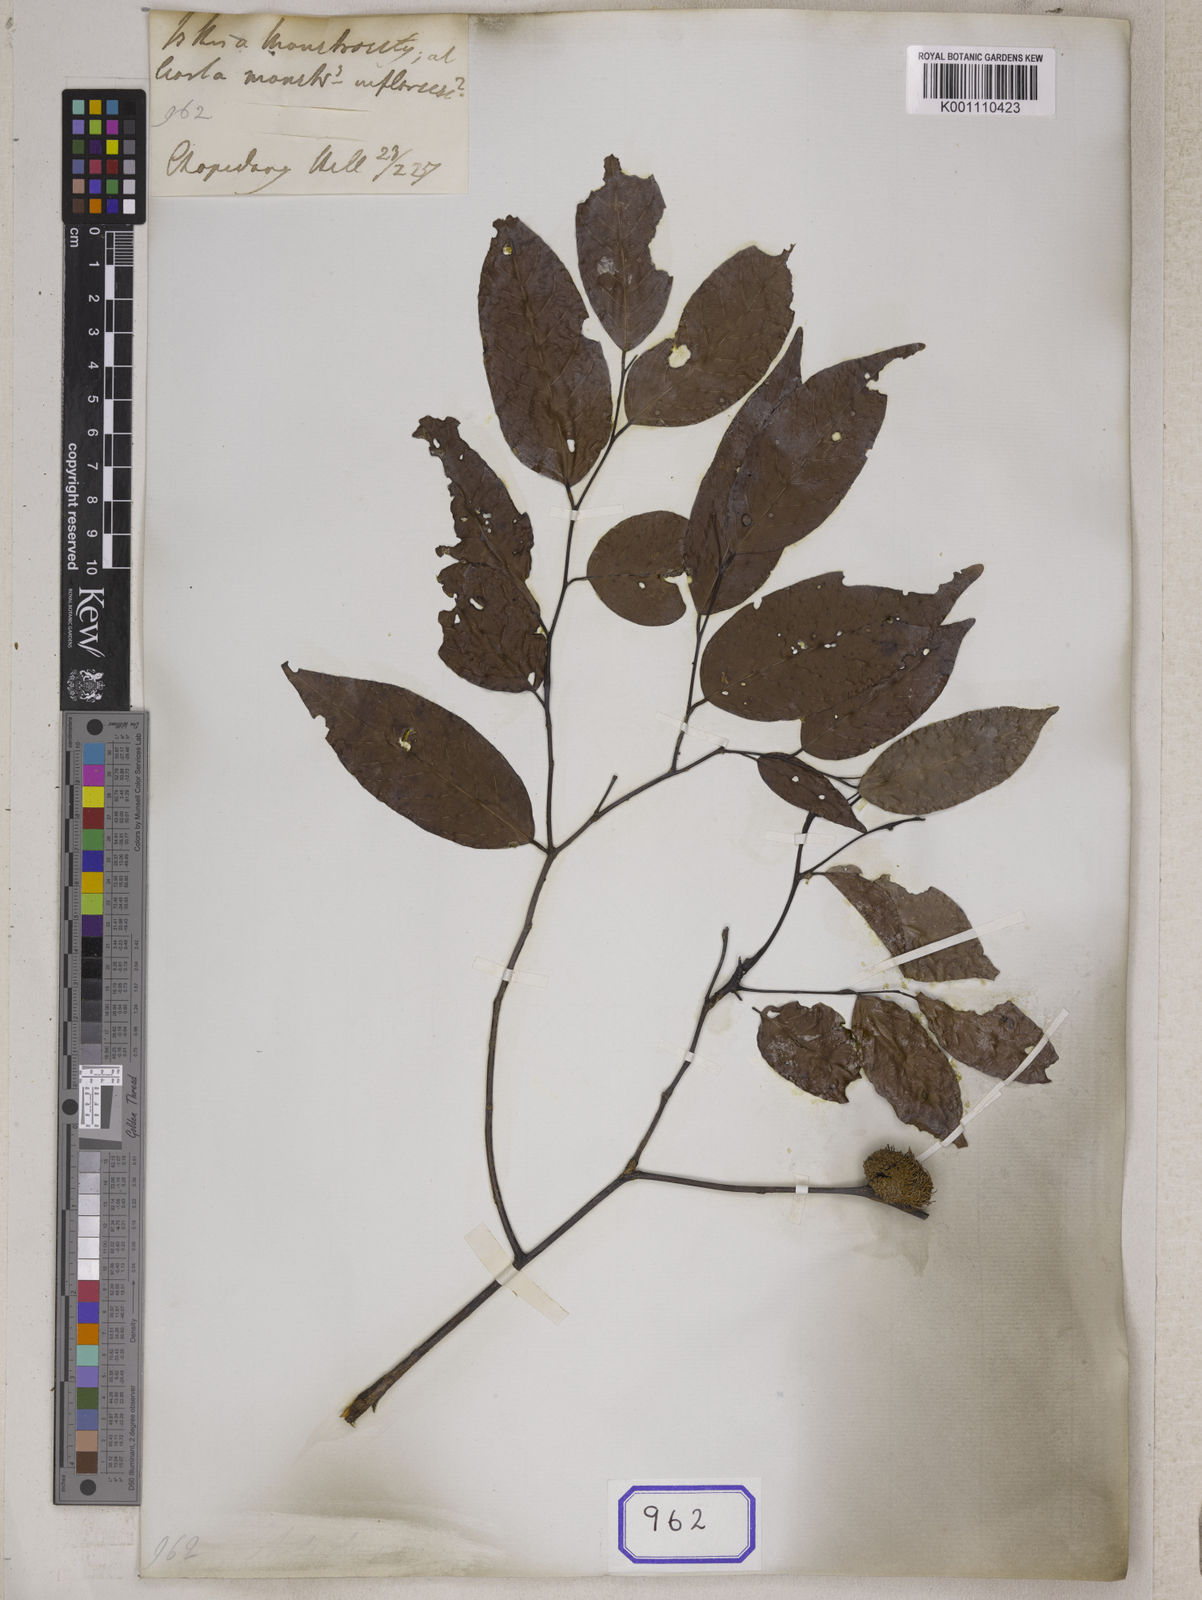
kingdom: Plantae
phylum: Tracheophyta
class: Magnoliopsida
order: Malvales
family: Dipterocarpaceae
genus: Hopea
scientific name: Hopea
